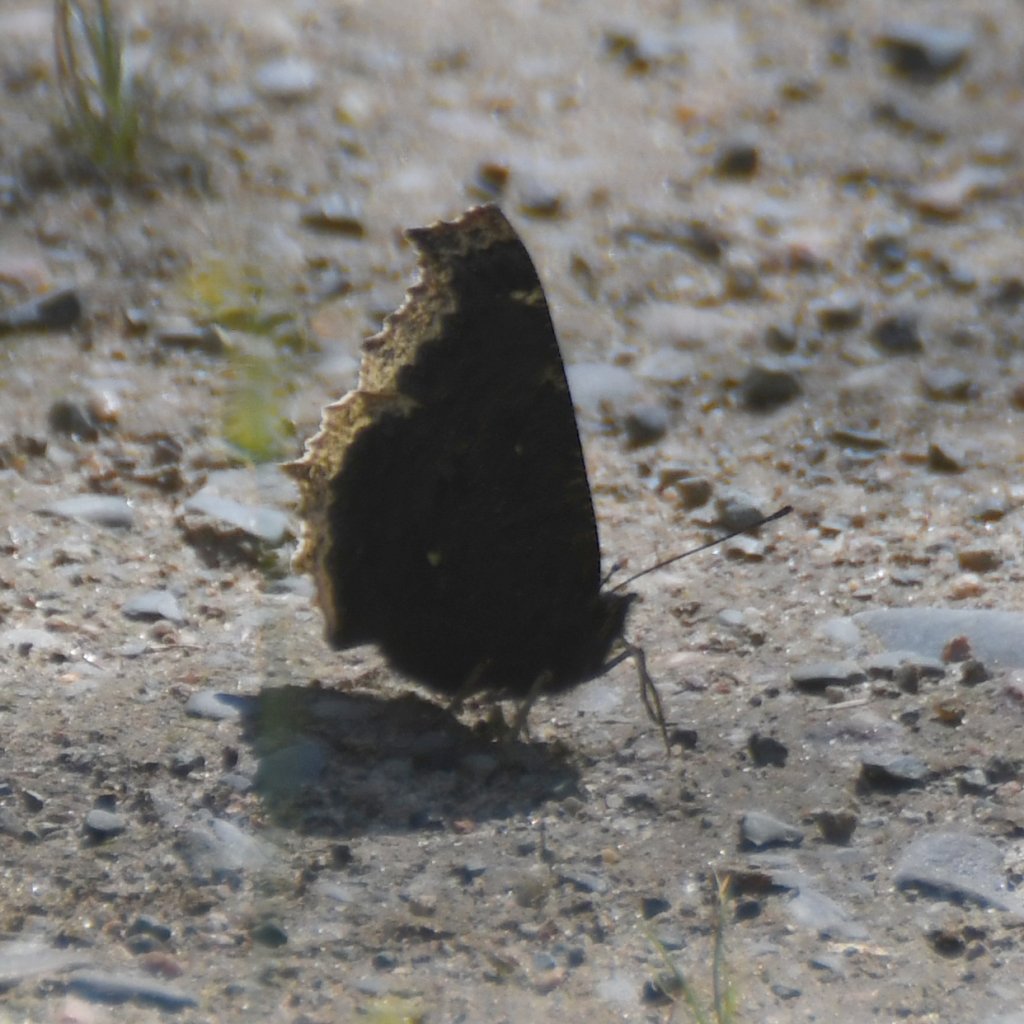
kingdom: Animalia
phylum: Arthropoda
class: Insecta
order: Lepidoptera
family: Nymphalidae
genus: Nymphalis
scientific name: Nymphalis antiopa
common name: Mourning Cloak
